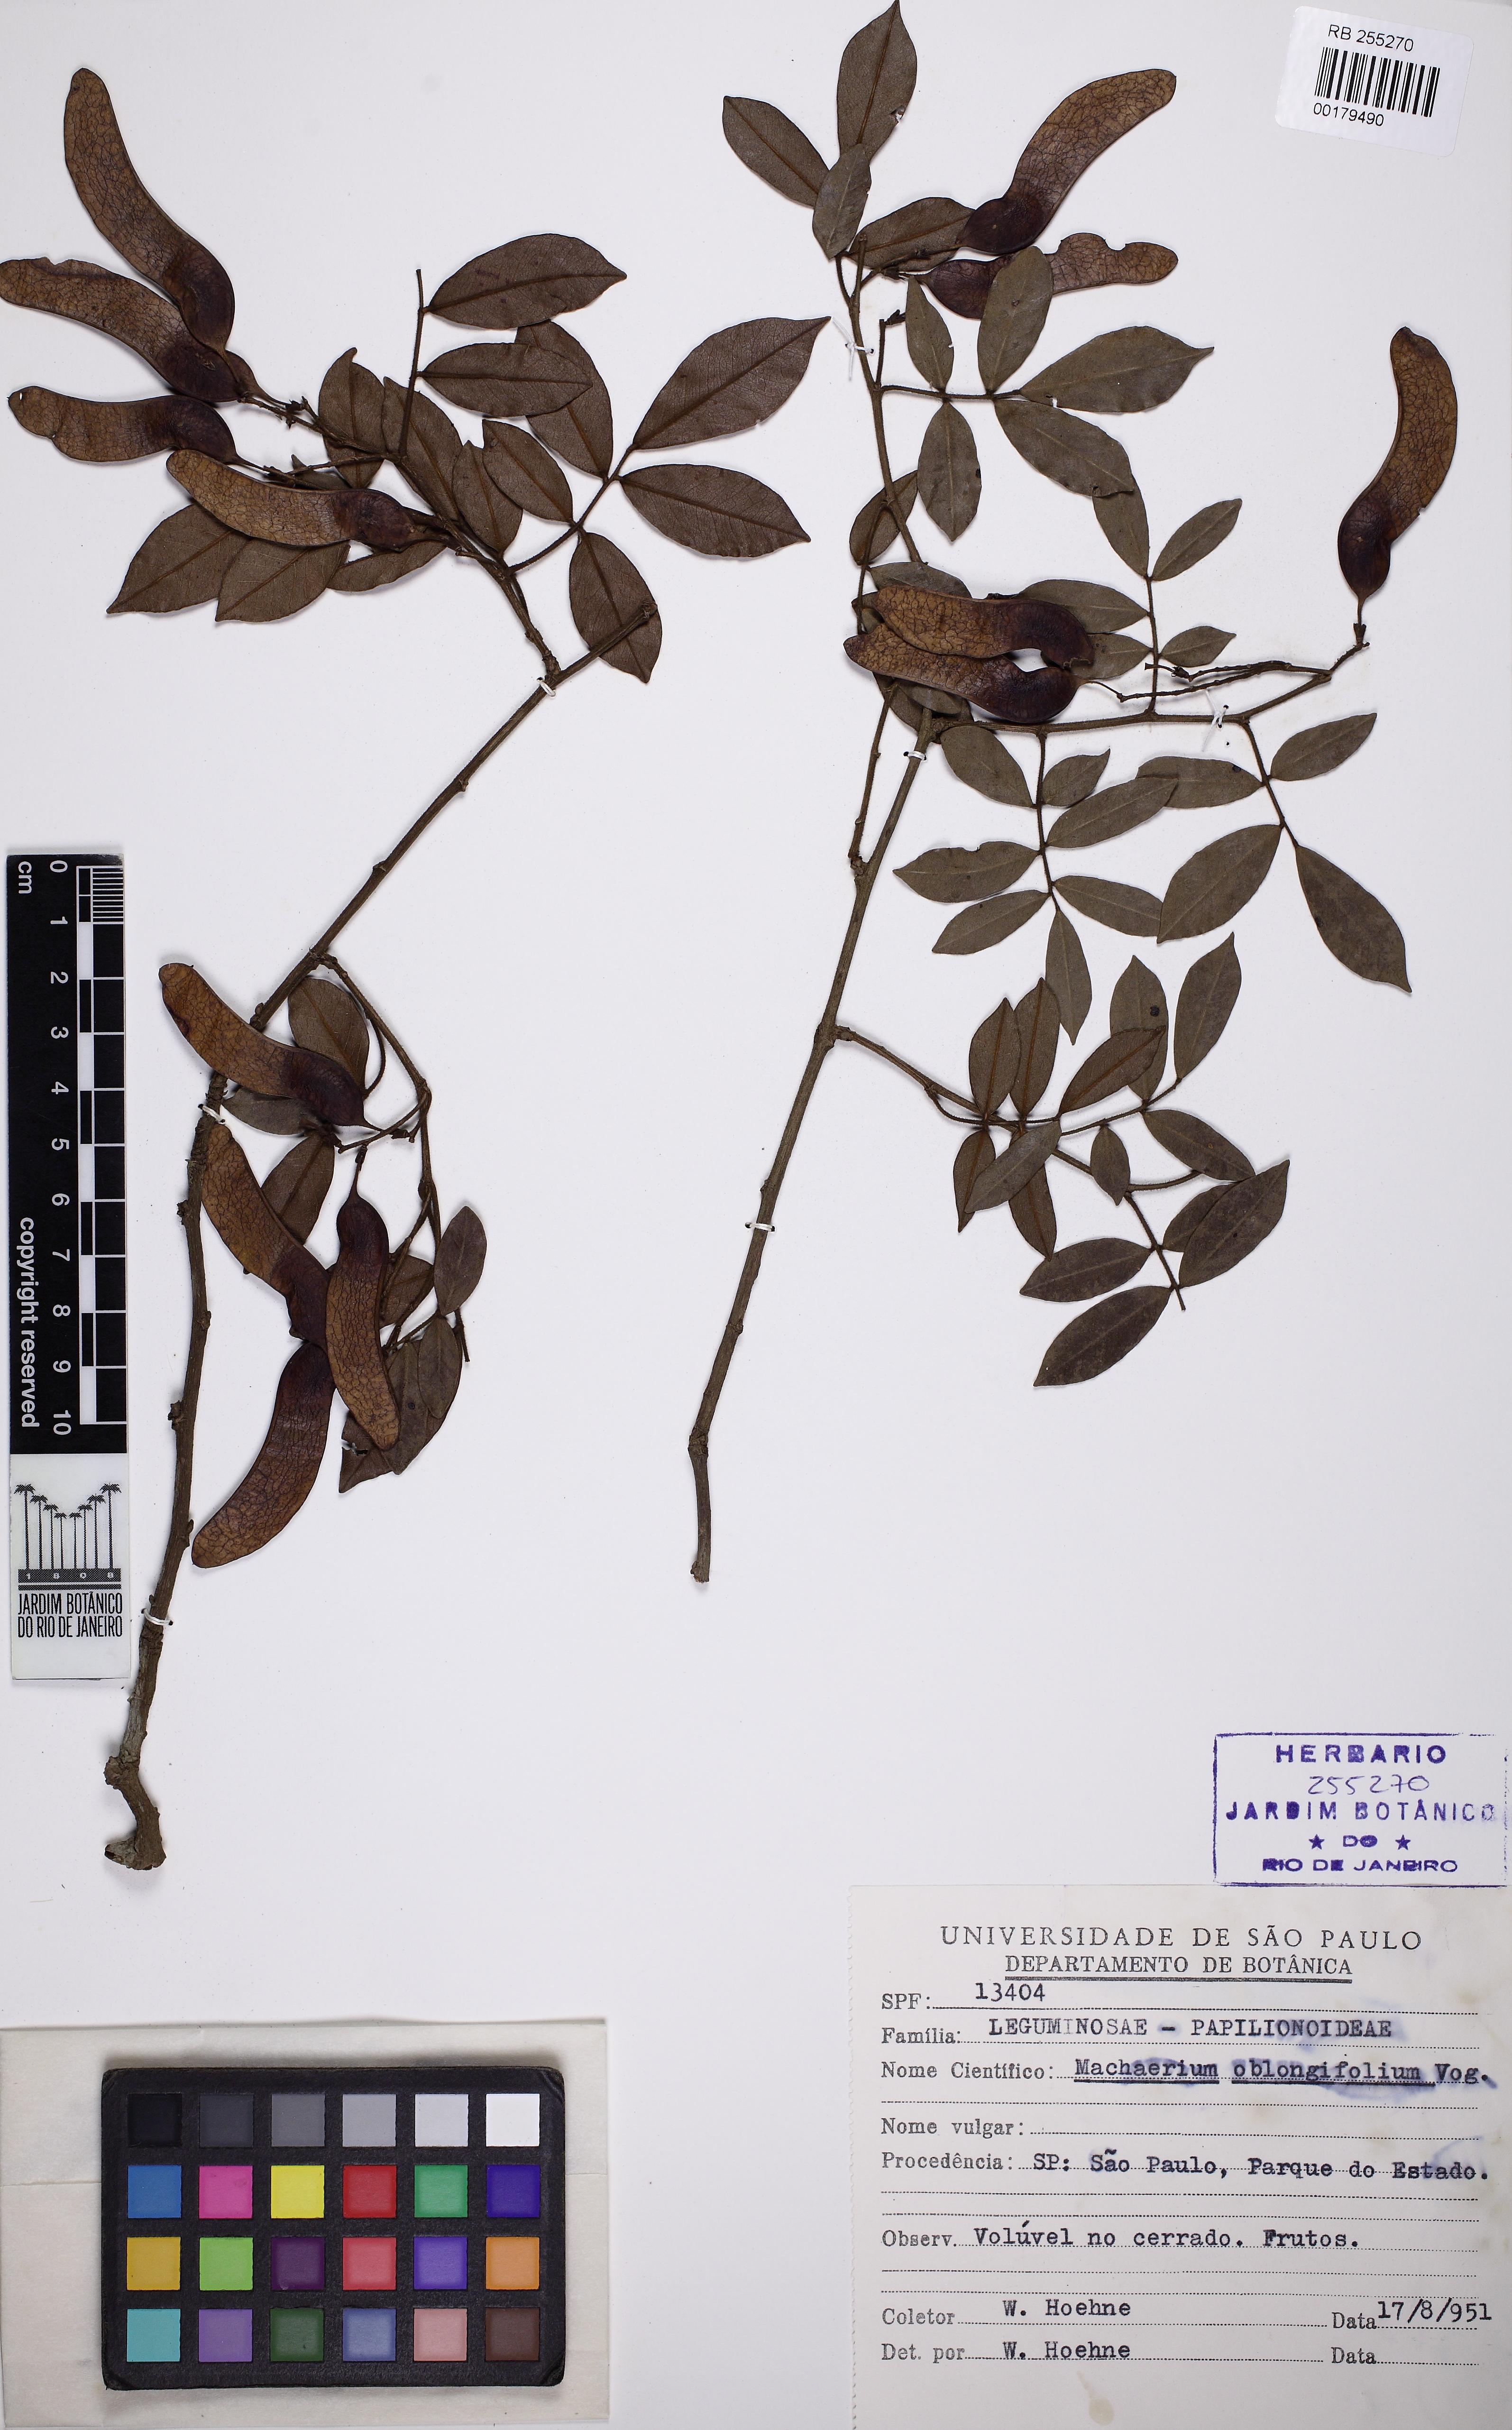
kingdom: Plantae
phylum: Tracheophyta
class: Magnoliopsida
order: Fabales
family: Fabaceae
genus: Machaerium
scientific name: Machaerium oblongifolium
